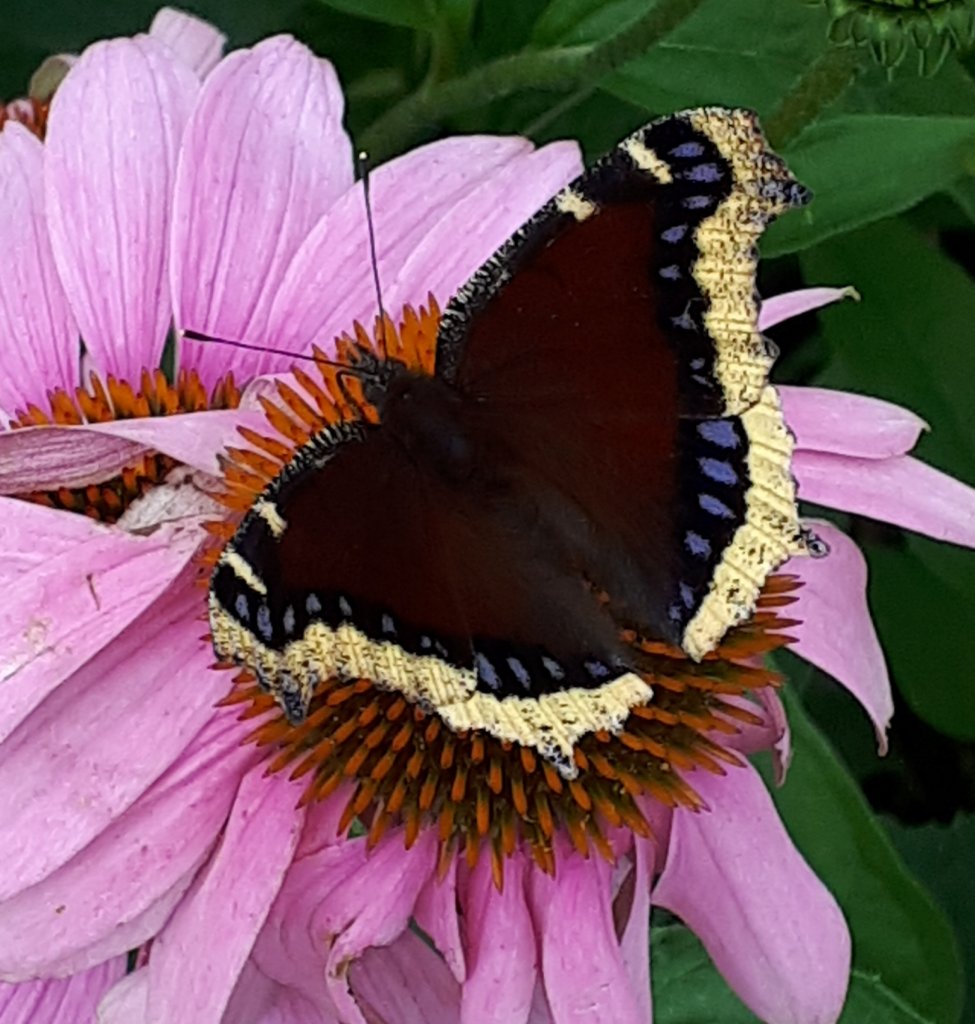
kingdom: Animalia
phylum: Arthropoda
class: Insecta
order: Lepidoptera
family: Nymphalidae
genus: Nymphalis
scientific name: Nymphalis antiopa
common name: Mourning Cloak
